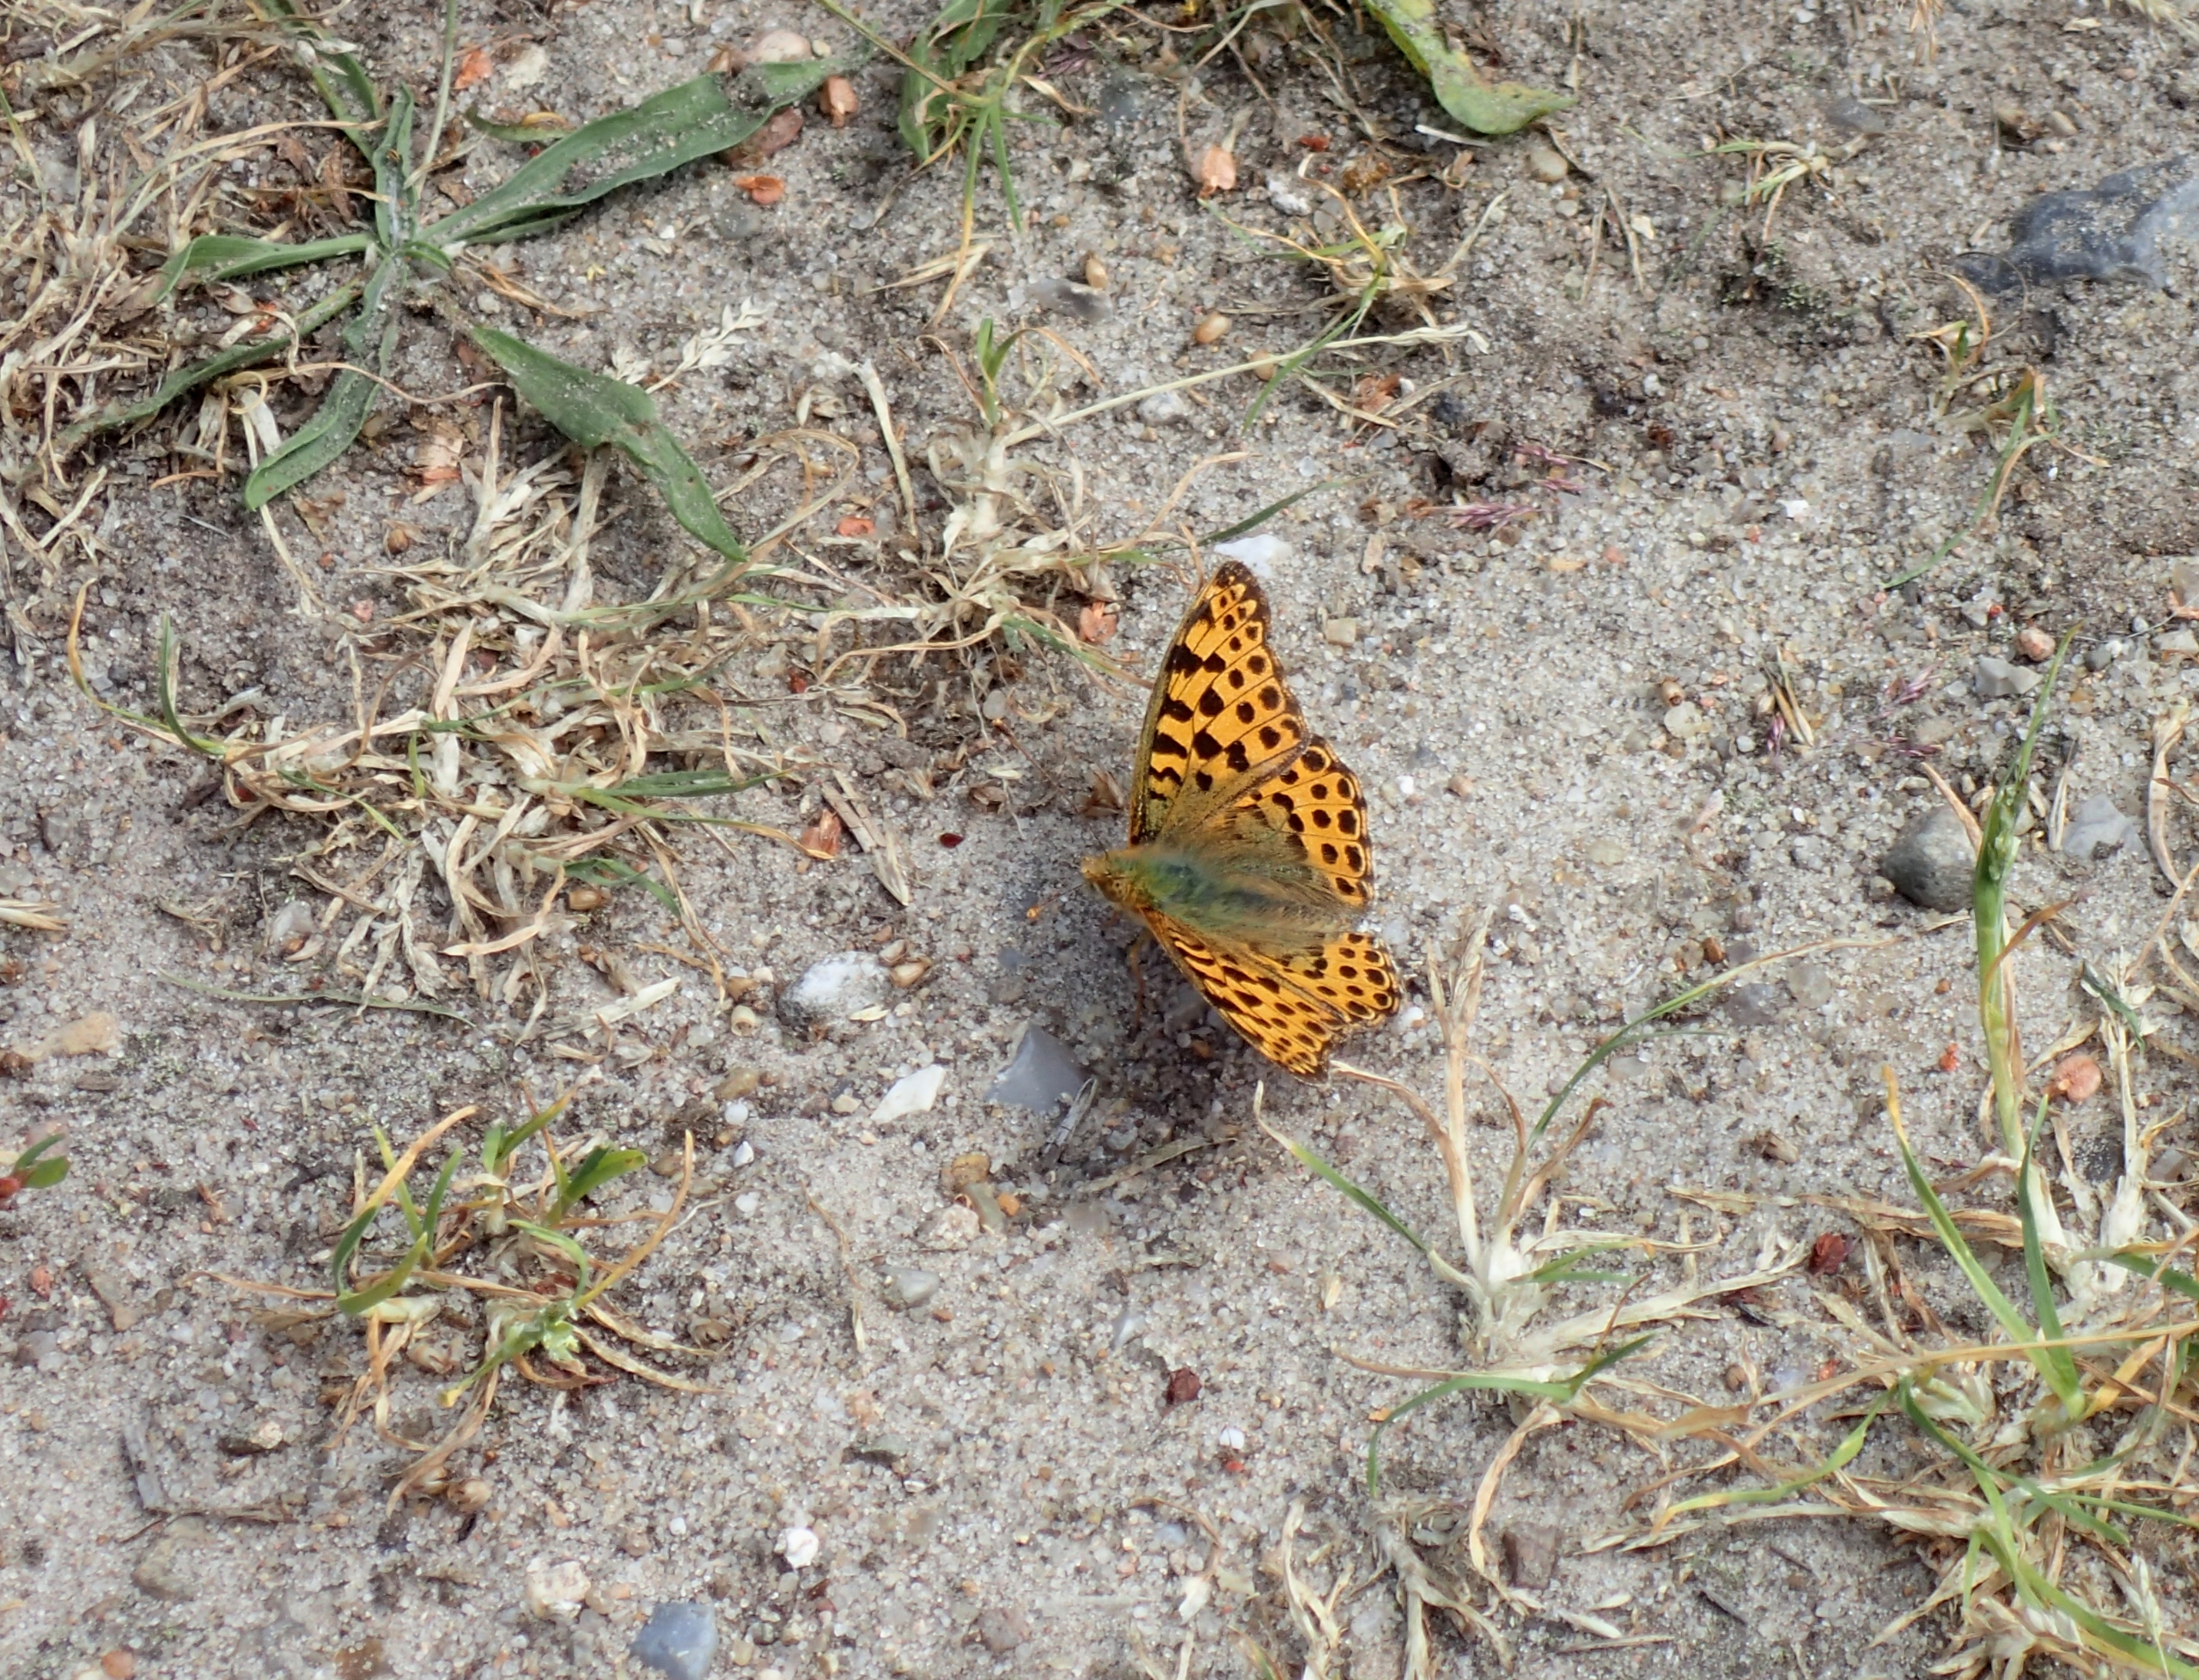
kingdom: Animalia
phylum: Arthropoda
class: Insecta
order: Lepidoptera
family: Nymphalidae
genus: Issoria
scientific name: Issoria lathonia
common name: Storplettet perlemorsommerfugl
